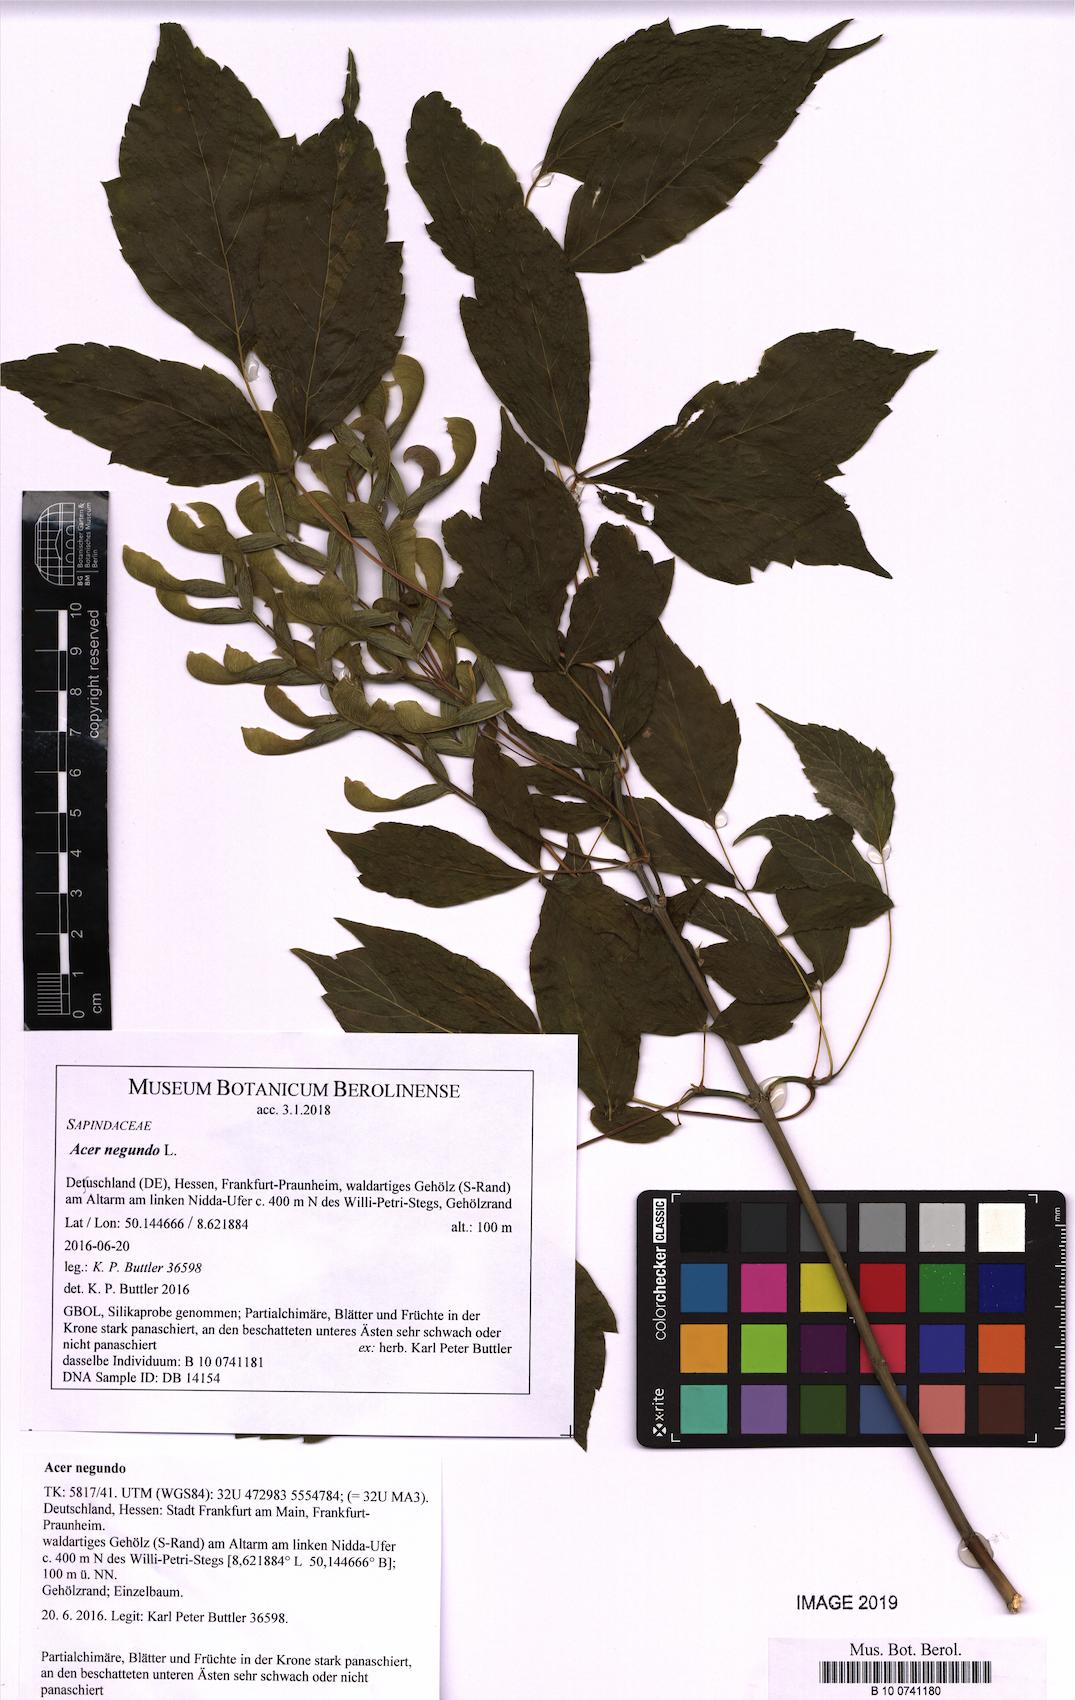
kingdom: Plantae
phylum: Tracheophyta
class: Magnoliopsida
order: Sapindales
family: Sapindaceae
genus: Acer
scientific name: Acer negundo
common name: Ashleaf maple
